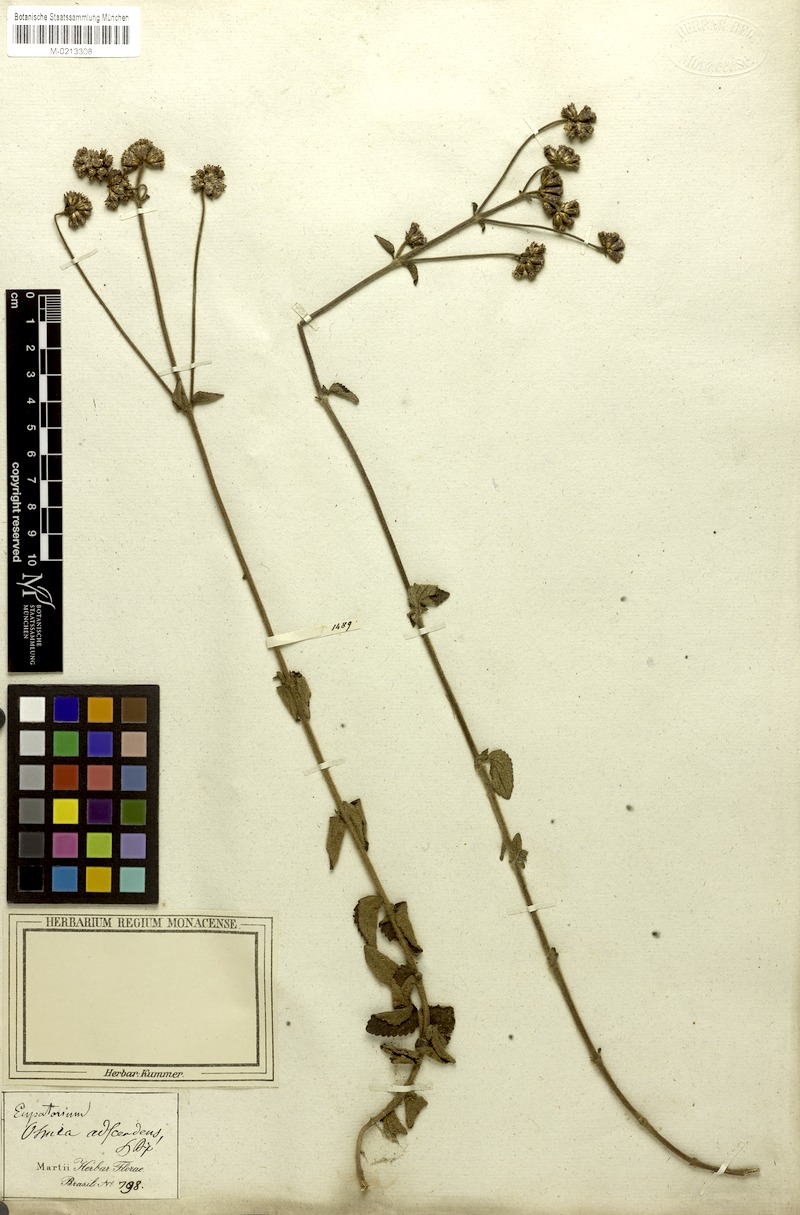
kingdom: Plantae
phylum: Tracheophyta
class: Magnoliopsida
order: Asterales
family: Asteraceae
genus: Chromolaena
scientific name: Chromolaena squarrulosa
